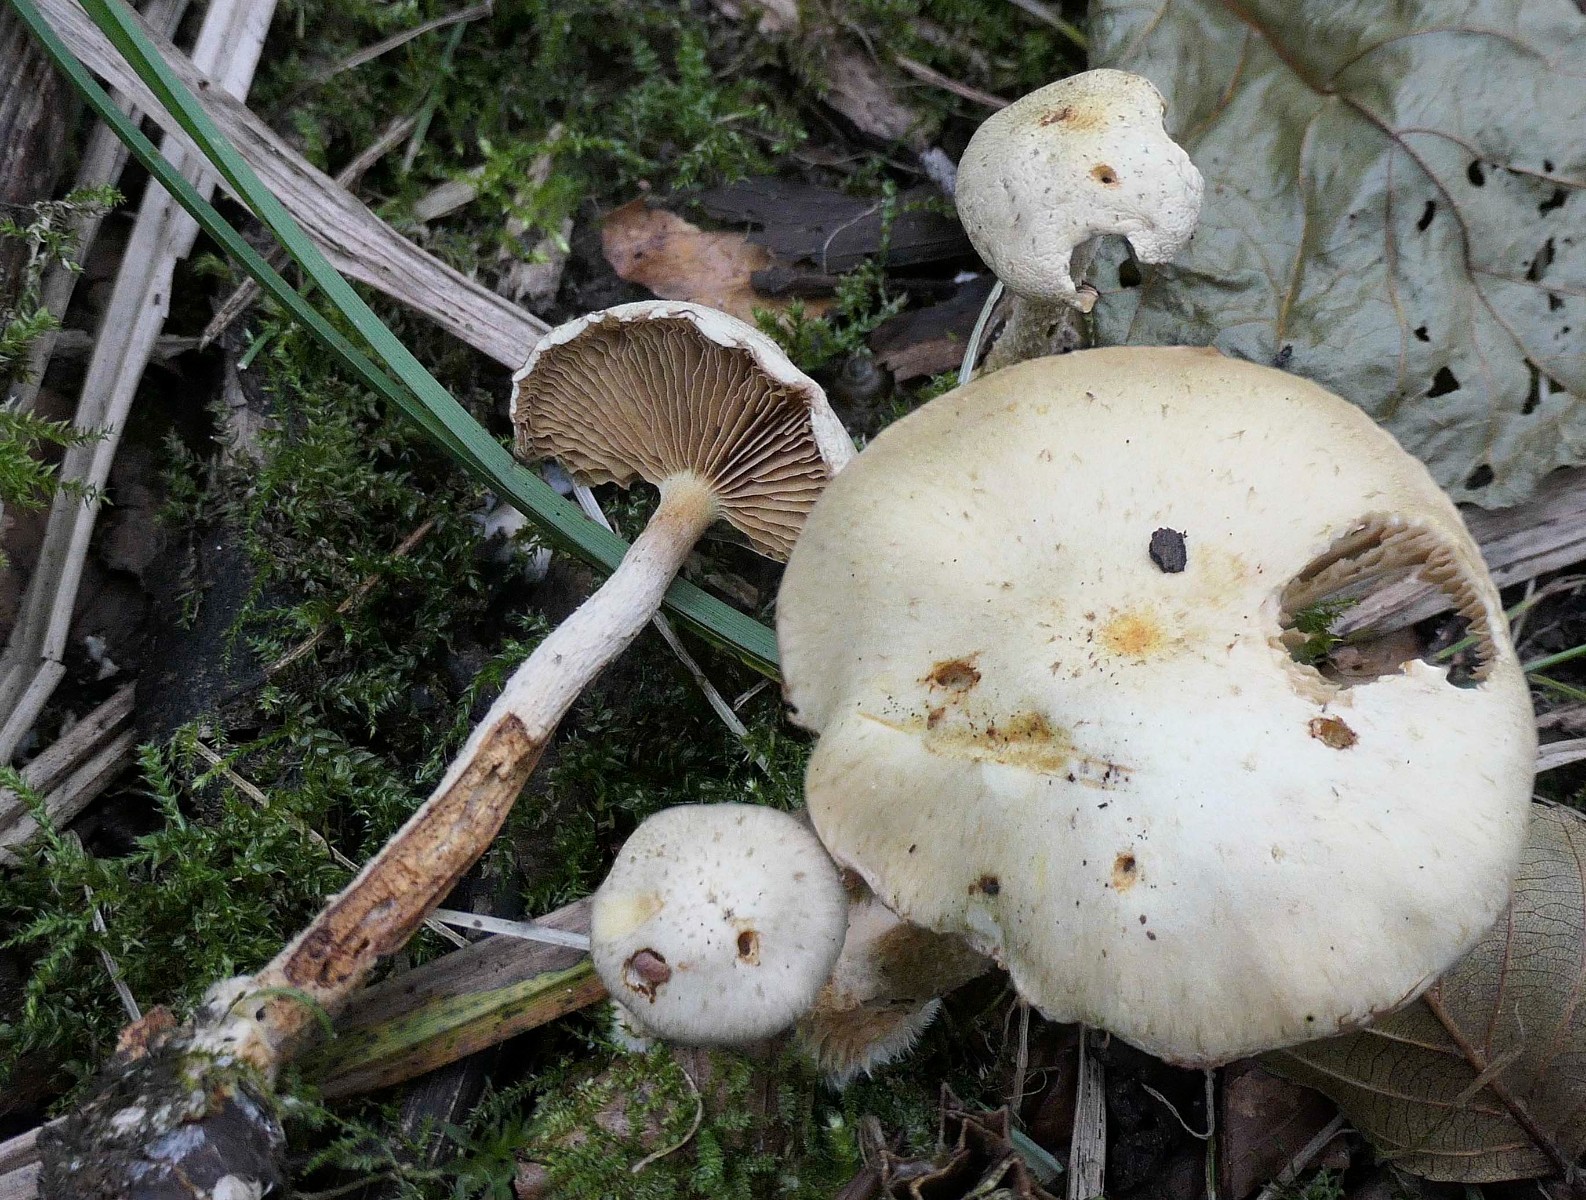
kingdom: Fungi
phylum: Basidiomycota
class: Agaricomycetes
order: Agaricales
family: Strophariaceae
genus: Pholiota
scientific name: Pholiota gummosa
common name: grøngul skælhat
